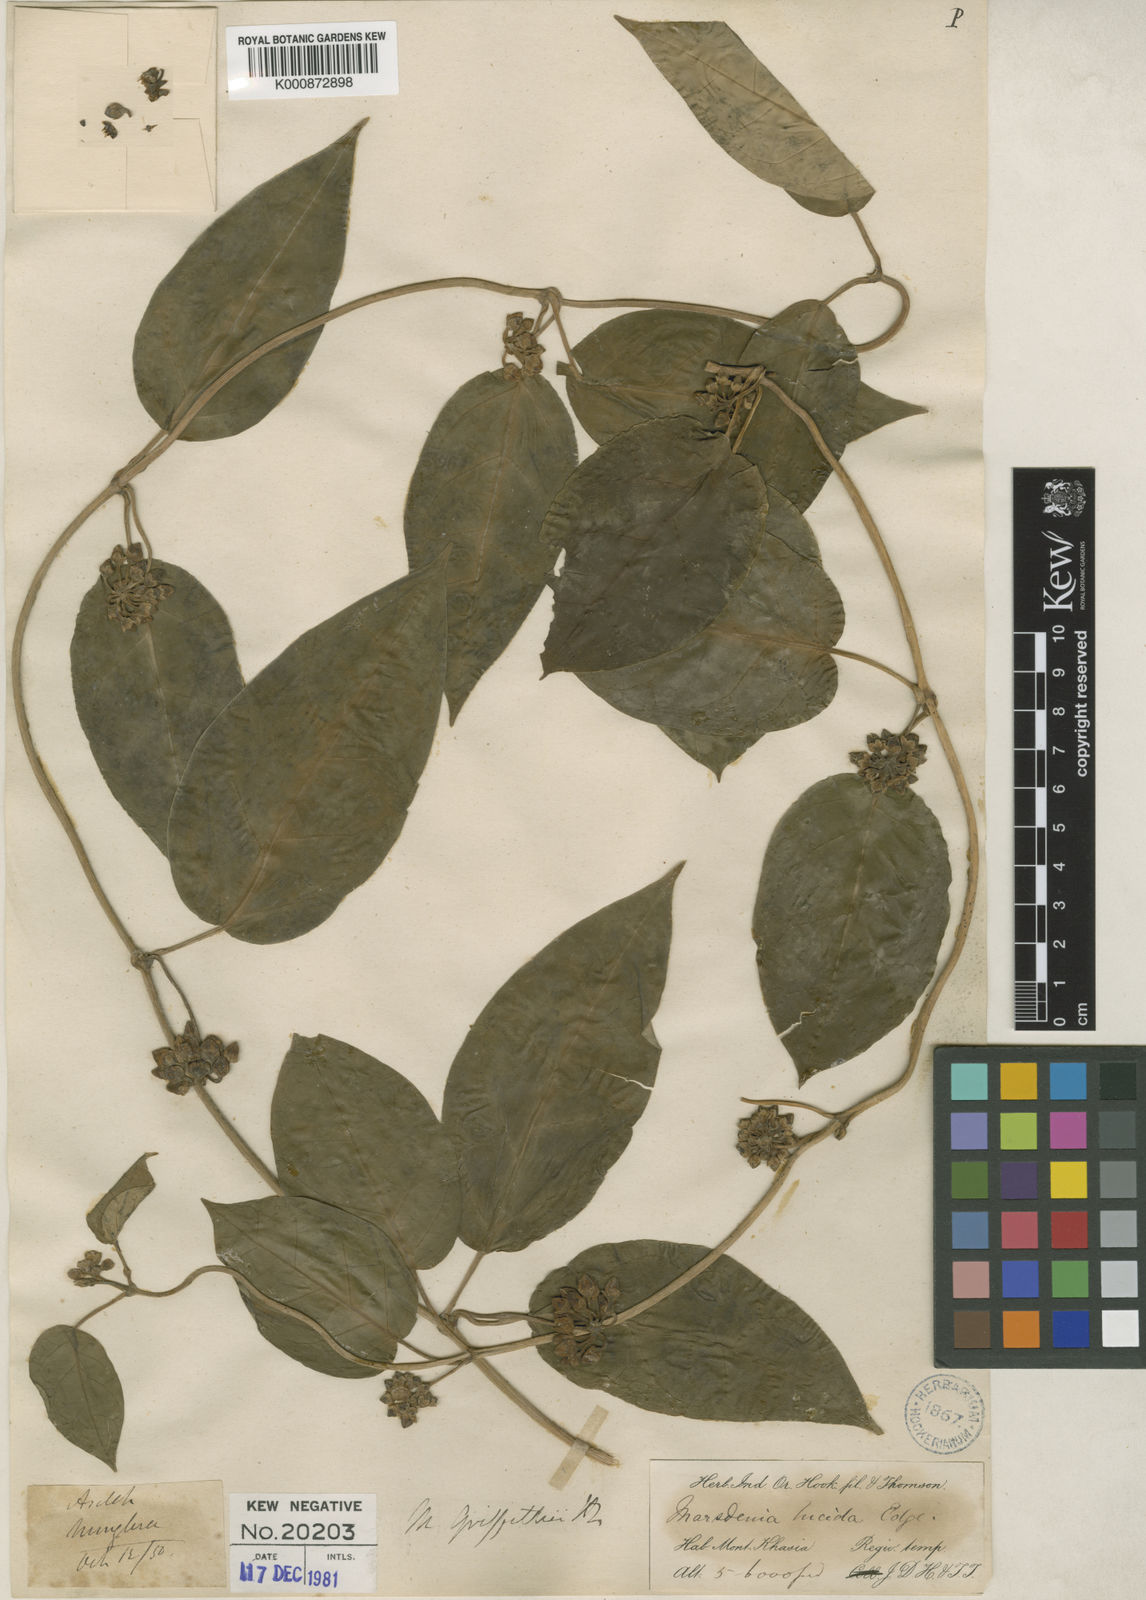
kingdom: Plantae
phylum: Tracheophyta
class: Magnoliopsida
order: Gentianales
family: Apocynaceae
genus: Sinomarsdenia
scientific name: Sinomarsdenia griffithii
